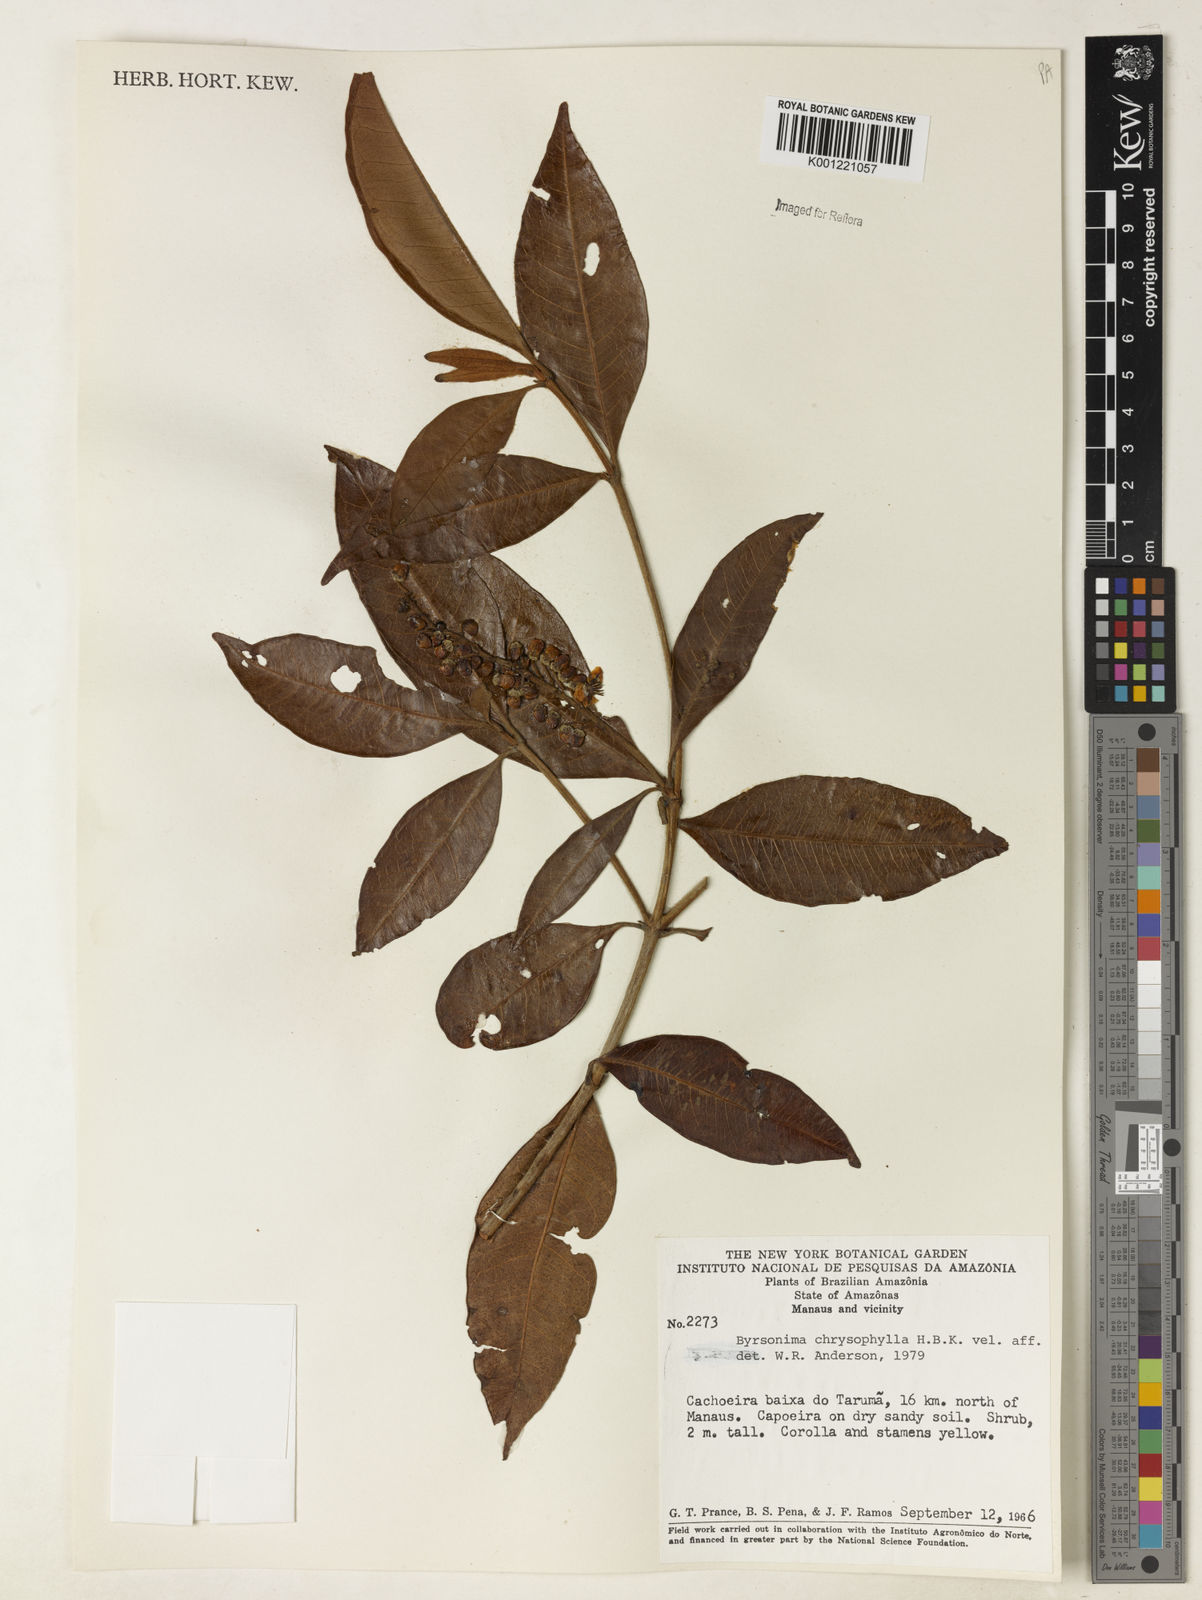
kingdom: Plantae
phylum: Tracheophyta
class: Magnoliopsida
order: Malpighiales
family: Malpighiaceae
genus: Byrsonima
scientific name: Byrsonima chrysophylla
